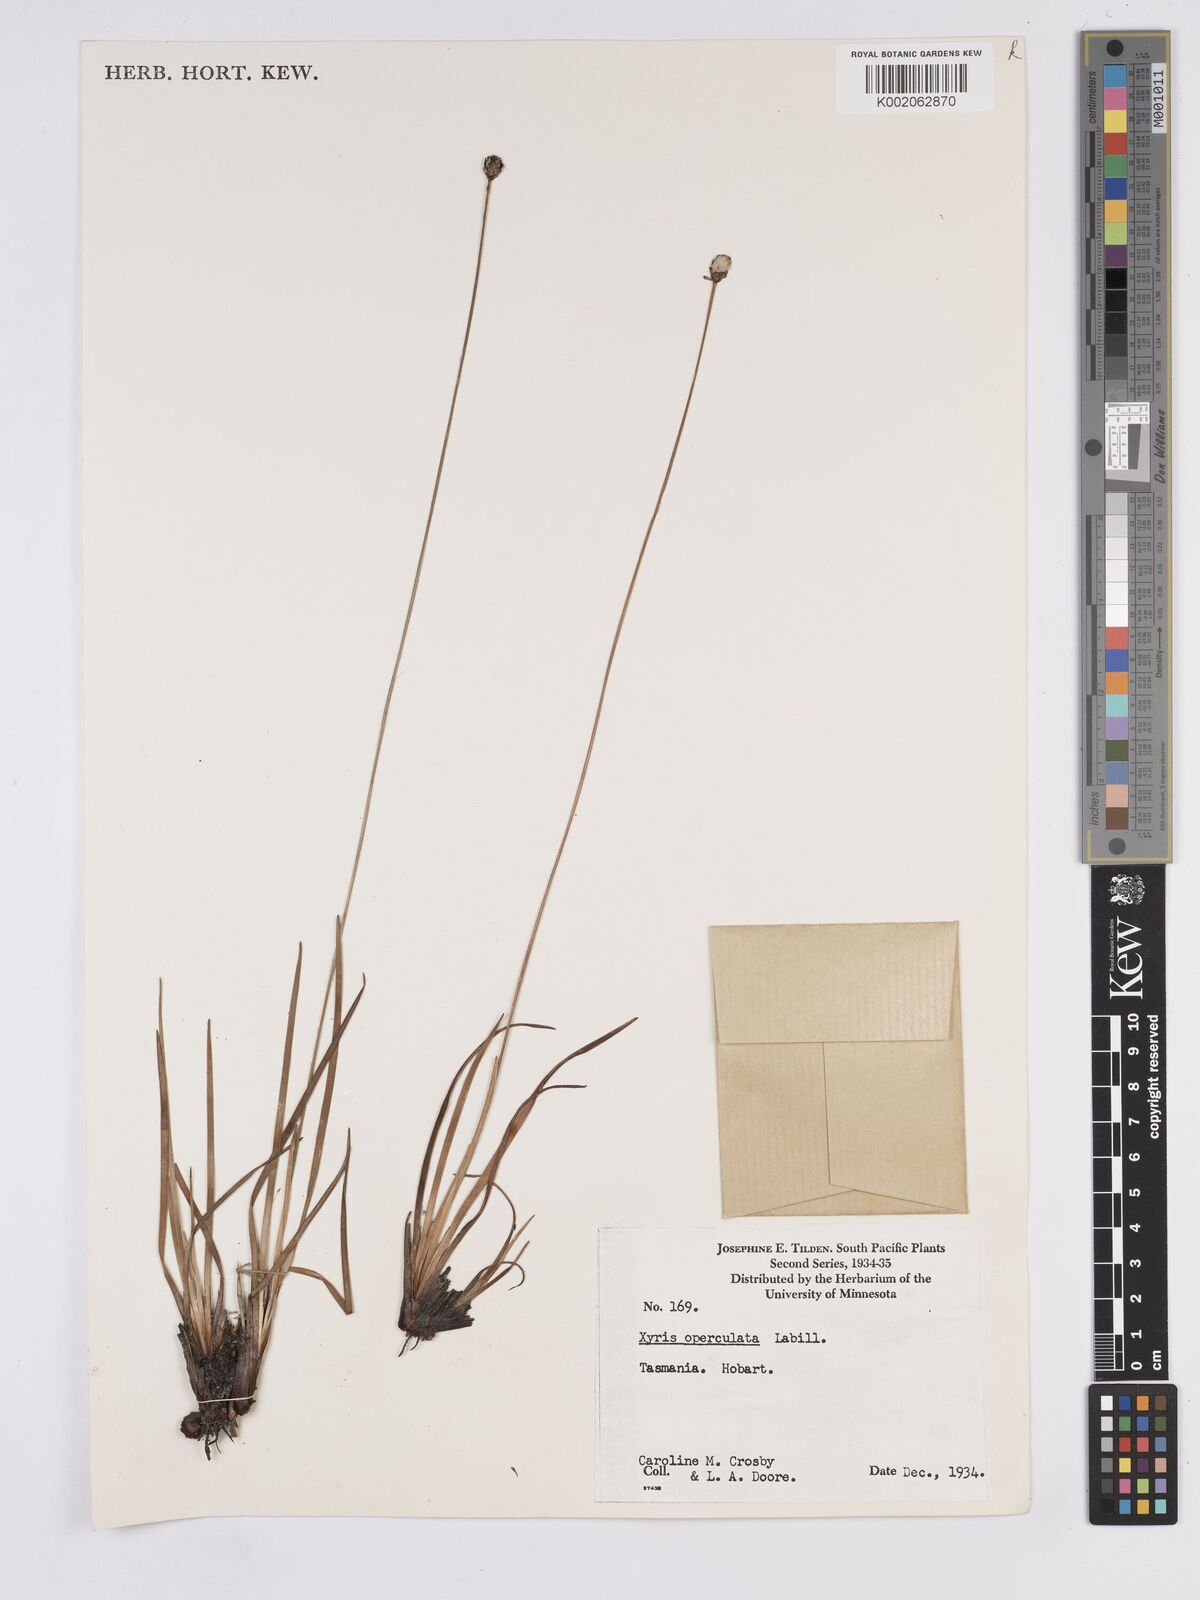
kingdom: Plantae
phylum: Tracheophyta
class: Liliopsida
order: Poales
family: Xyridaceae
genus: Xyris
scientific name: Xyris operculata
